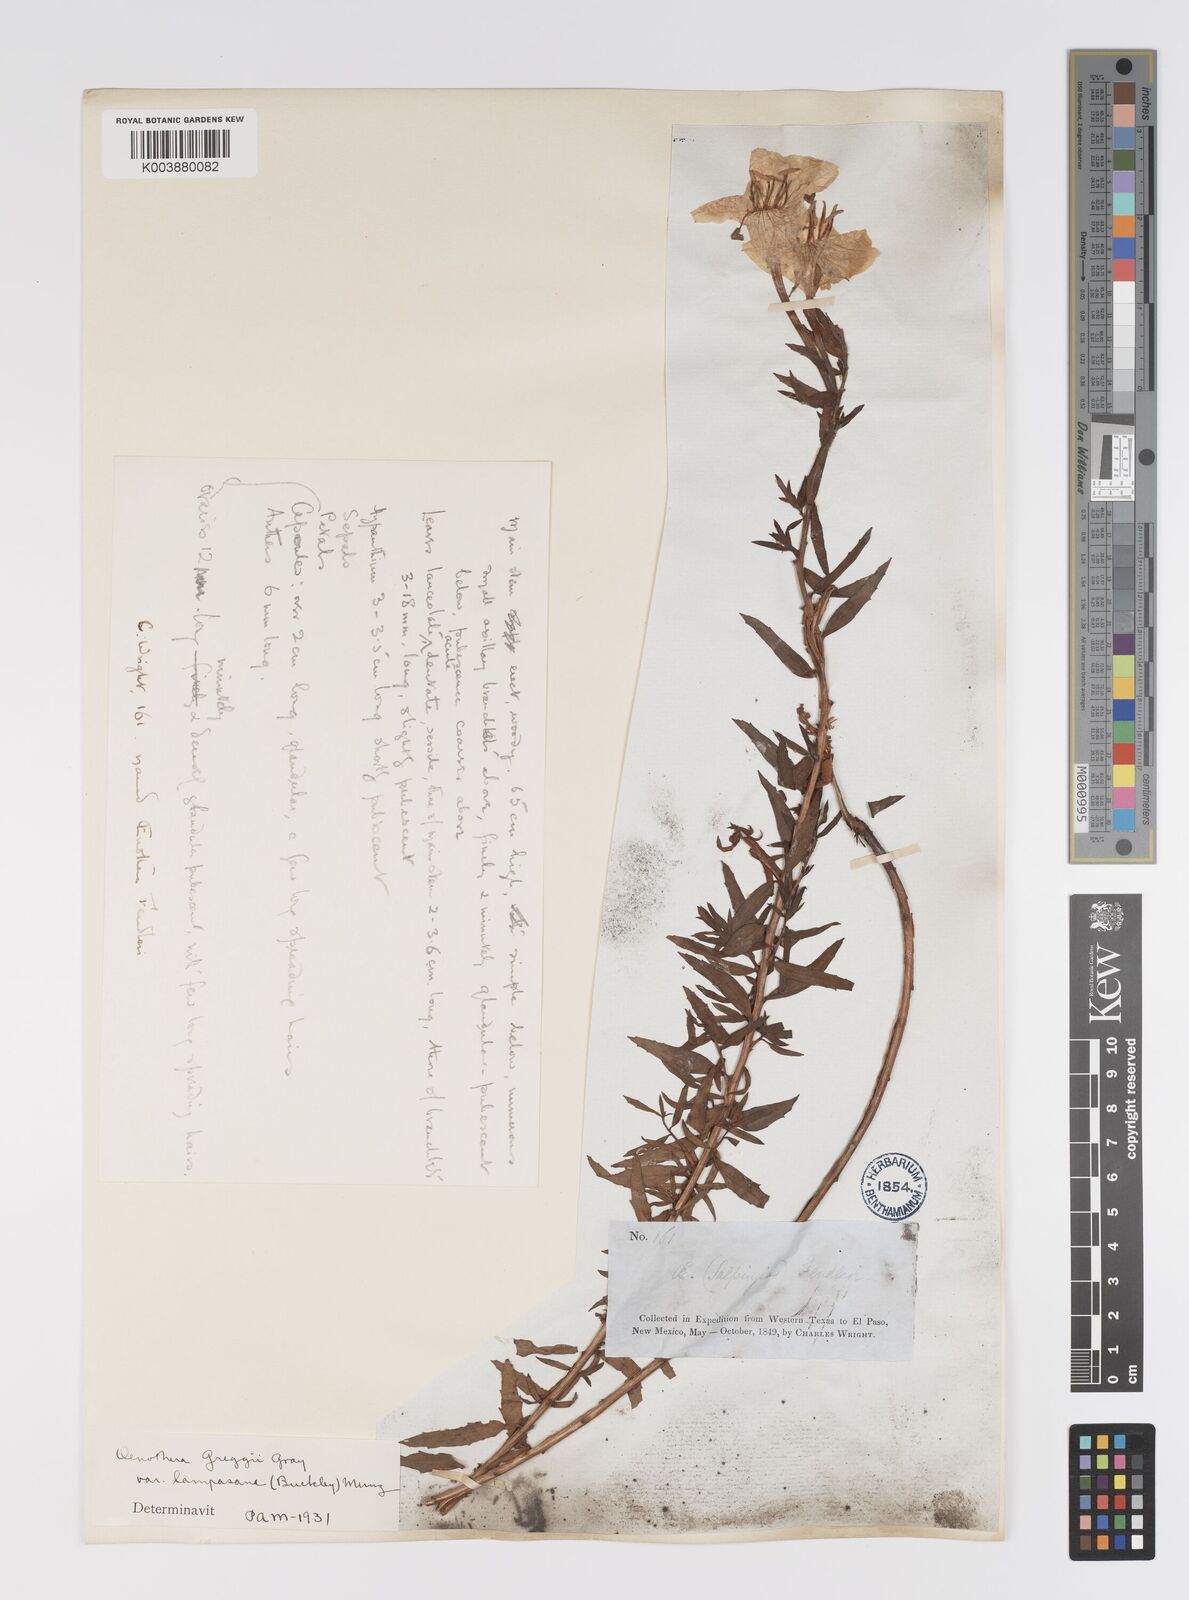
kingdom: Plantae
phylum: Tracheophyta
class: Magnoliopsida
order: Myrtales
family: Onagraceae
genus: Oenothera
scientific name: Oenothera hartwegii
